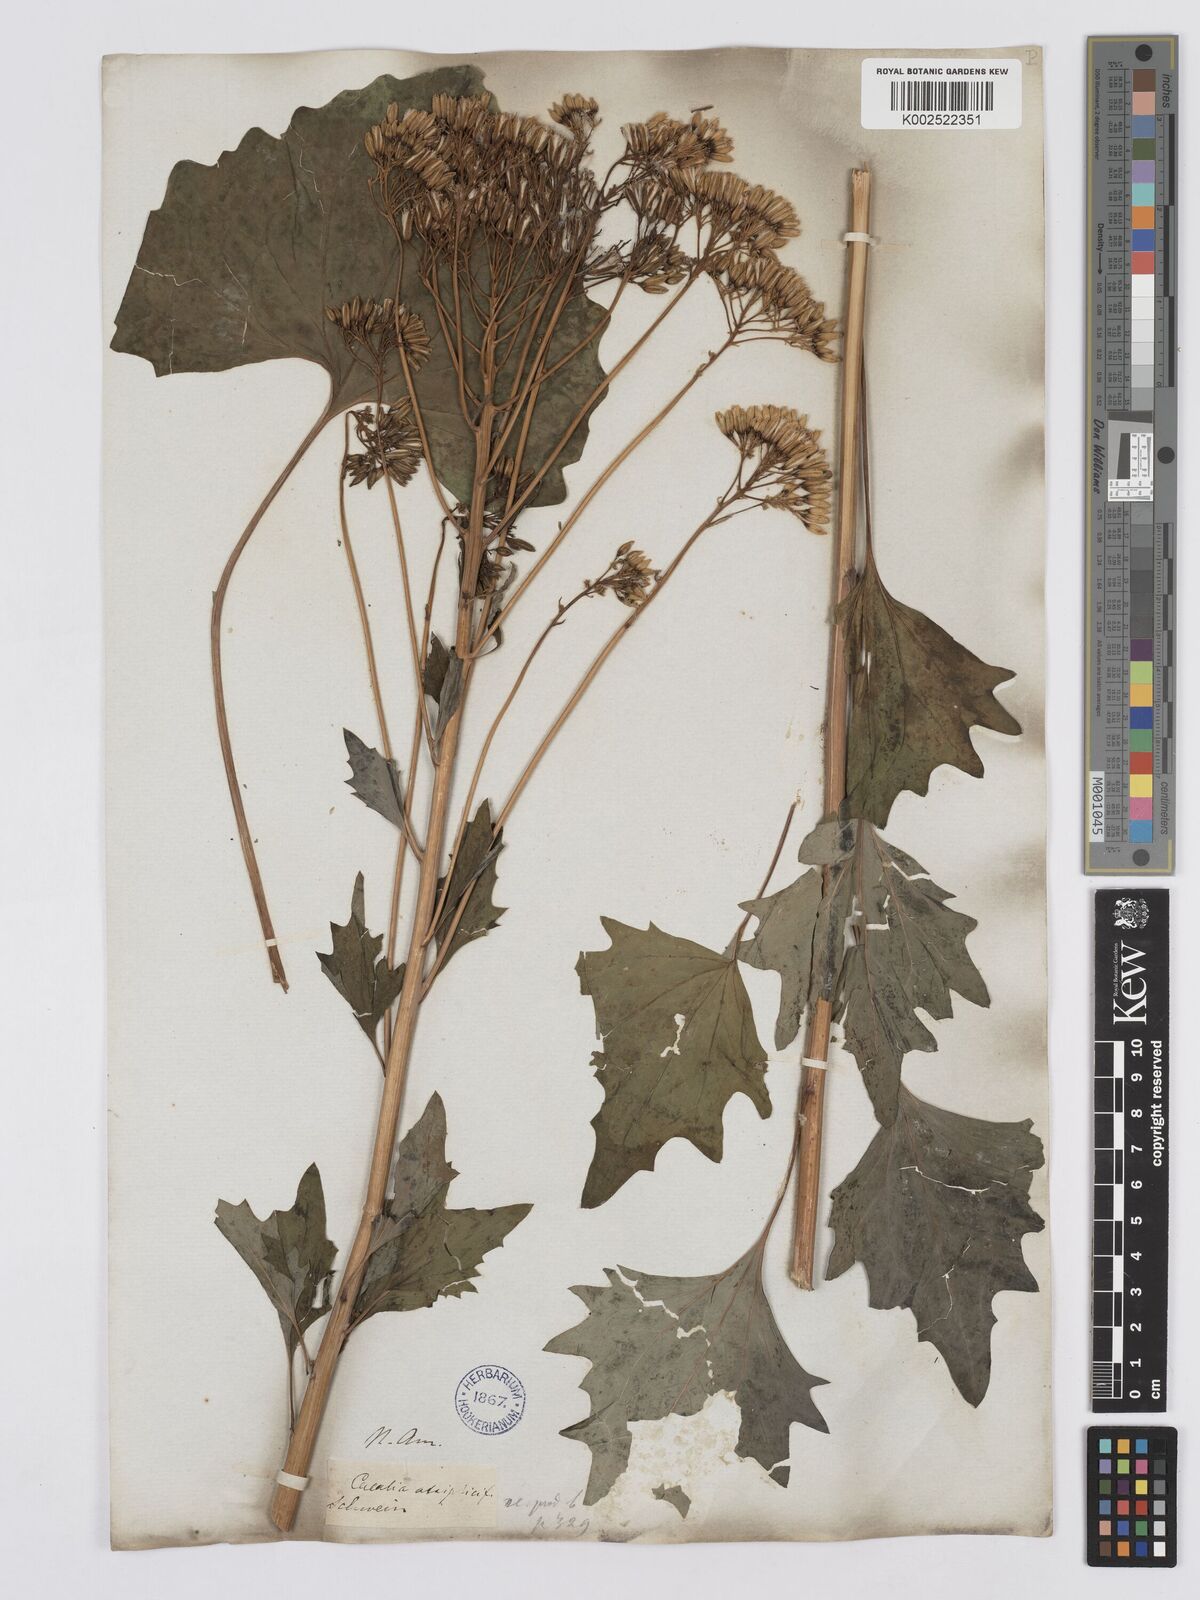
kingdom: Plantae
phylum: Tracheophyta
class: Magnoliopsida
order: Asterales
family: Asteraceae
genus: Arnoglossum
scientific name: Arnoglossum atriplicifolium
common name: Pale indian-plantain
